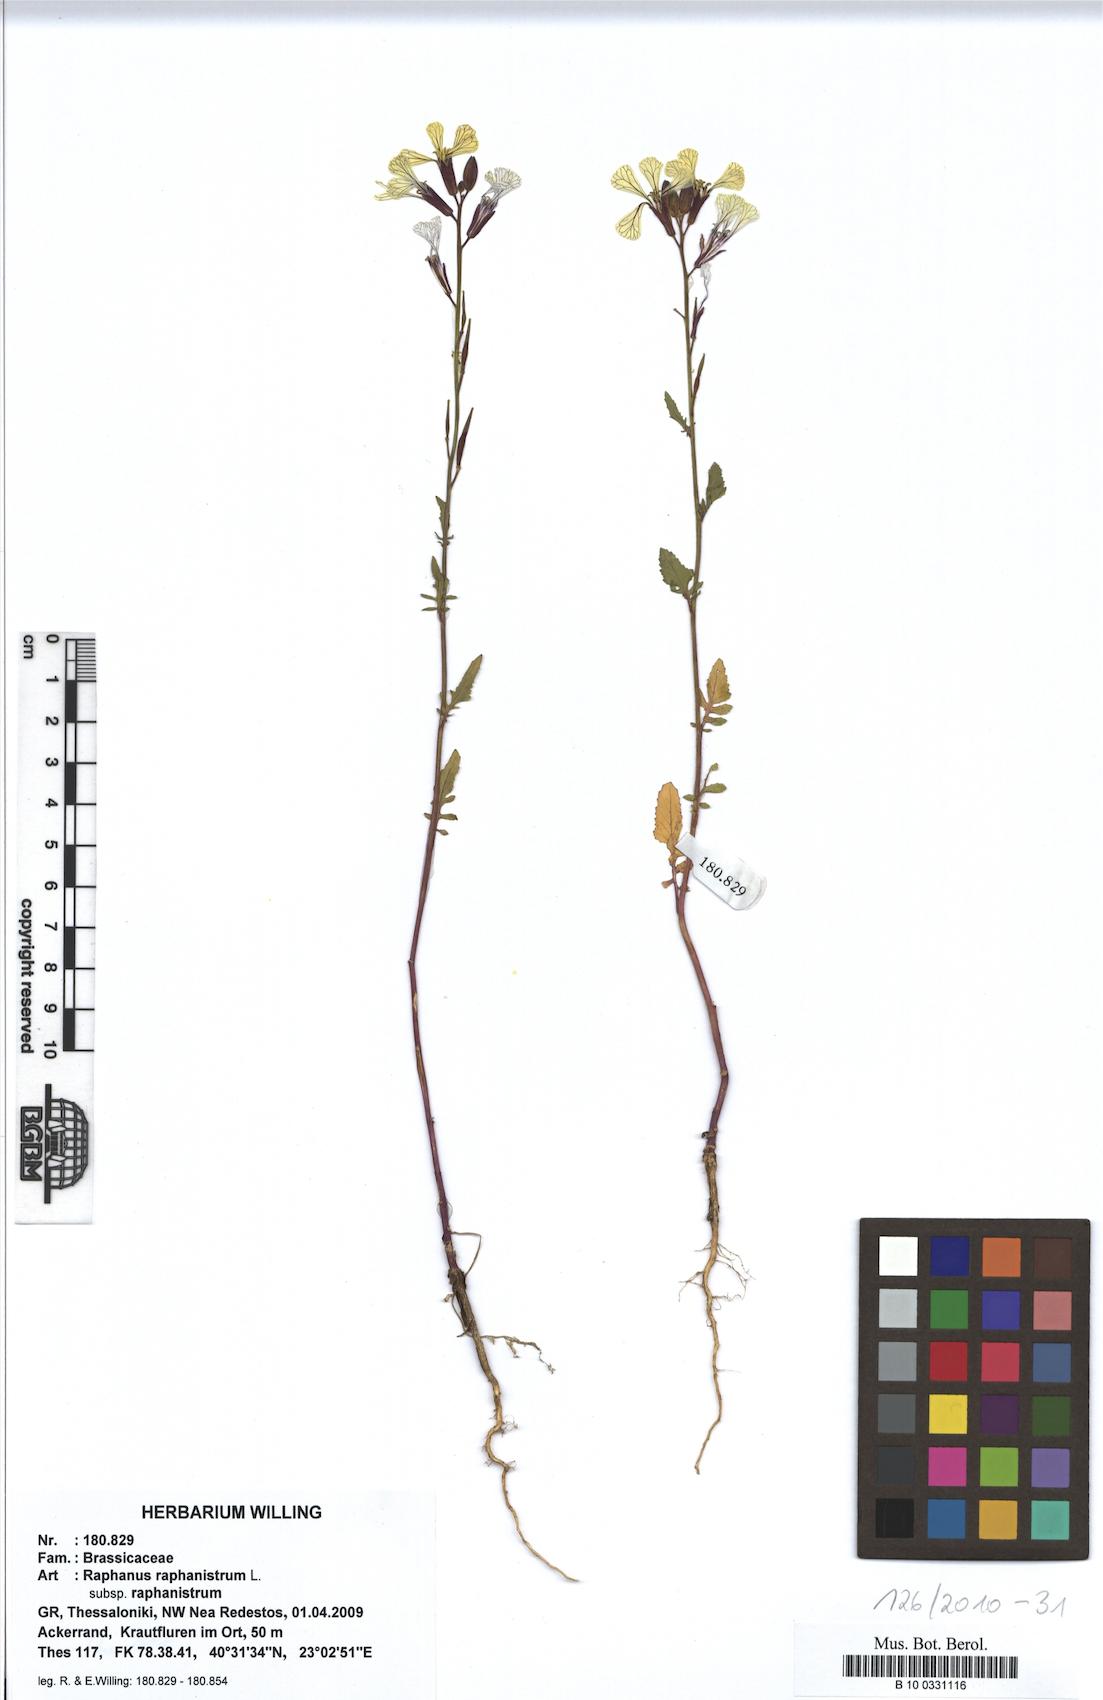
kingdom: Plantae
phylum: Tracheophyta
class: Magnoliopsida
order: Brassicales
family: Brassicaceae
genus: Raphanus
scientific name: Raphanus raphanistrum
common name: Wild radish
